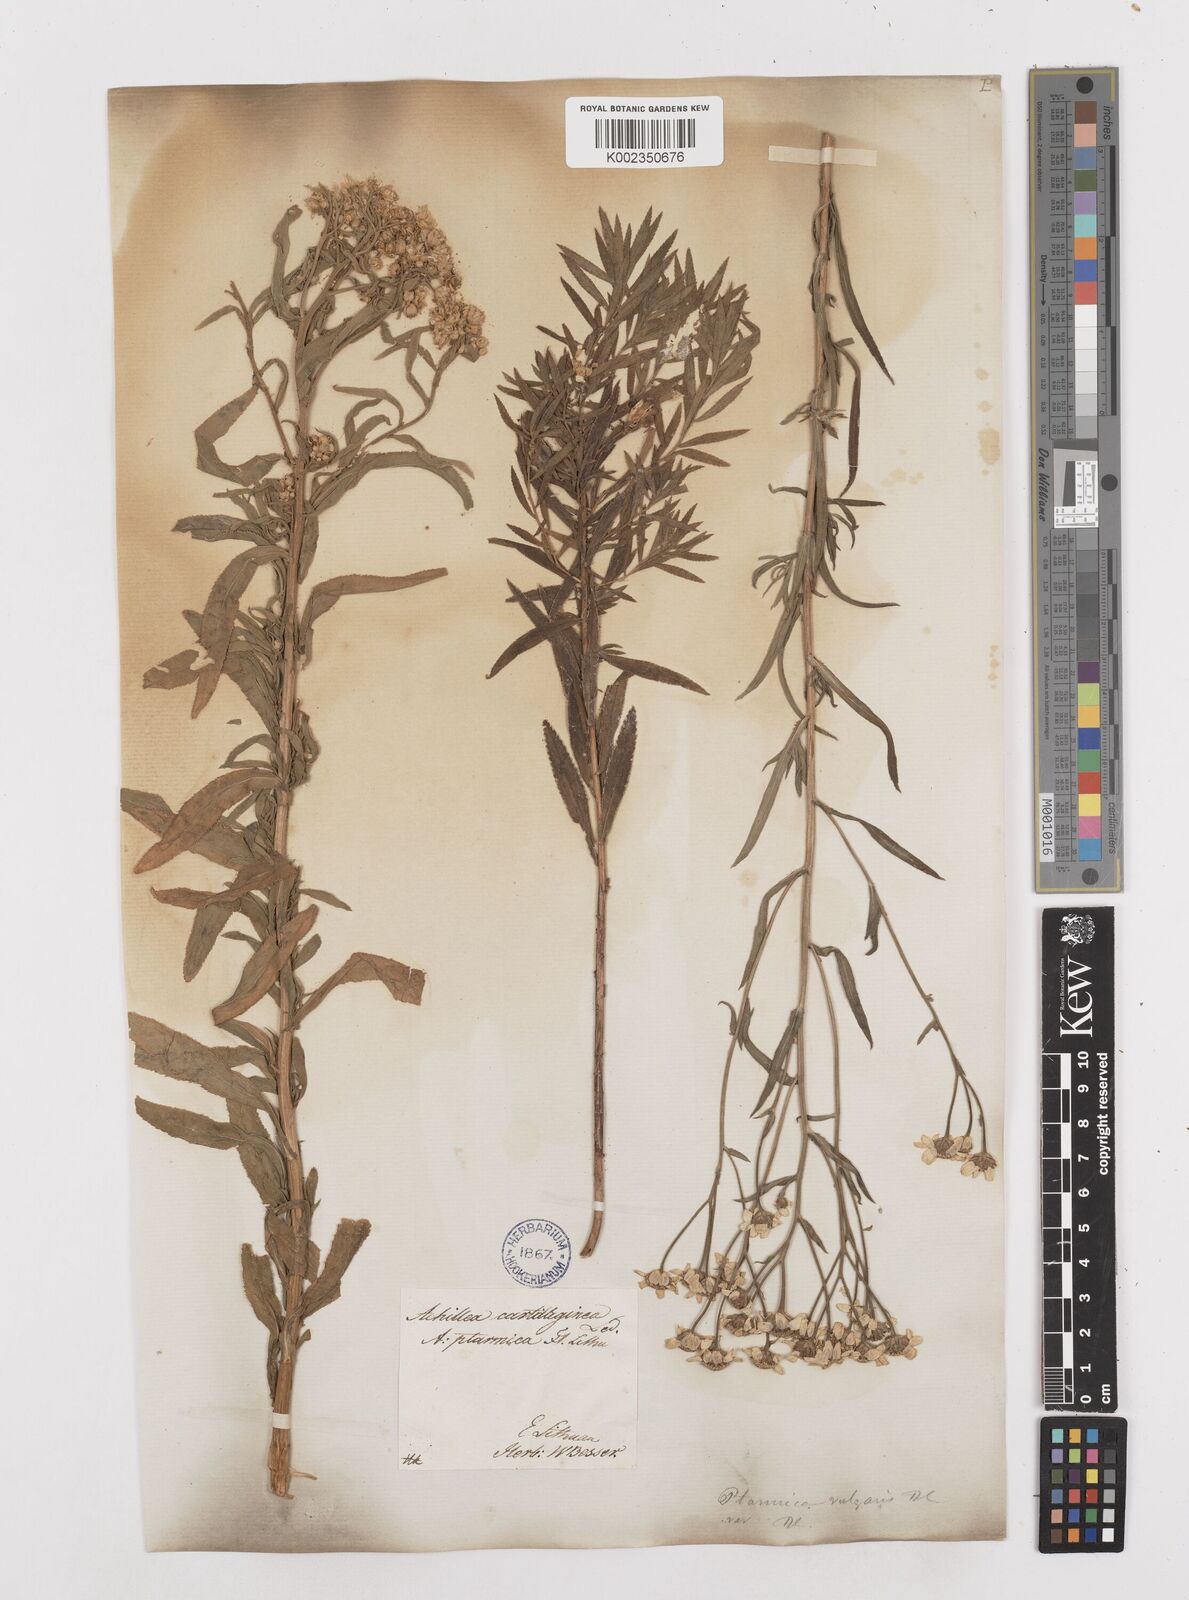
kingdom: Plantae
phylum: Tracheophyta
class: Magnoliopsida
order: Asterales
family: Asteraceae
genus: Achillea
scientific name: Achillea salicifolia
